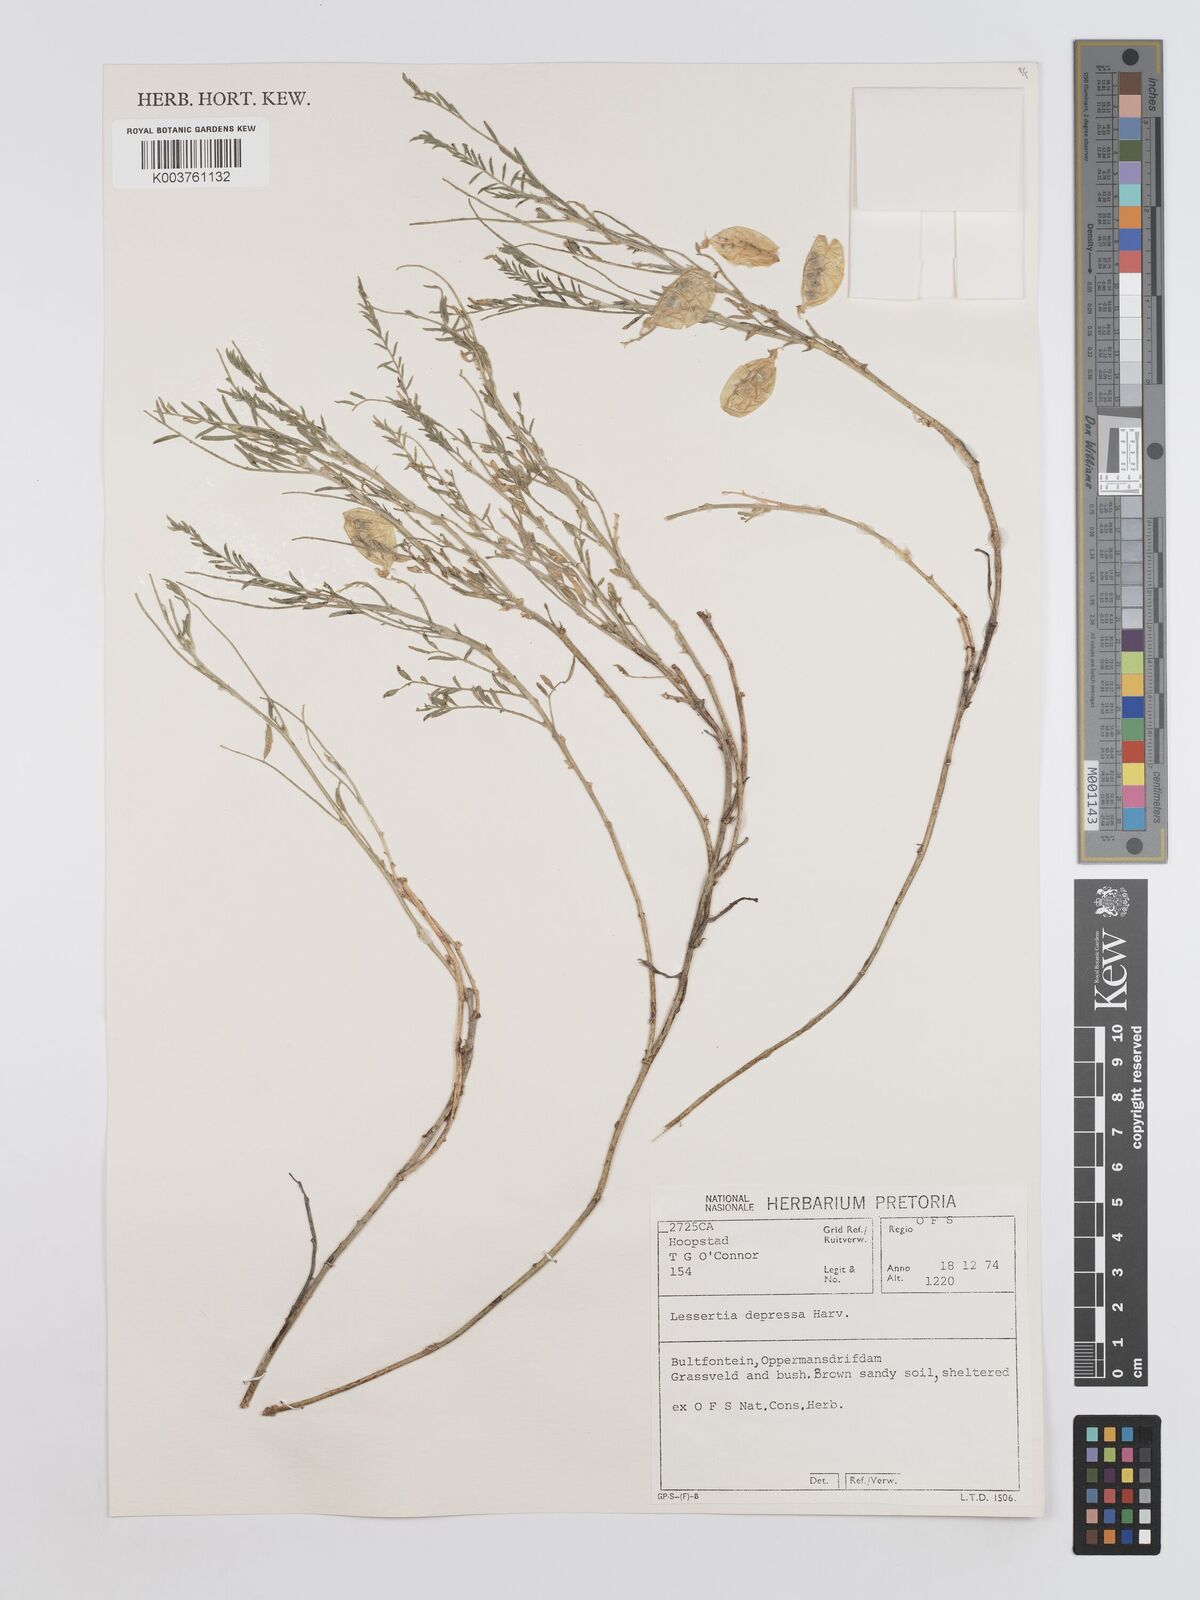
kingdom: Plantae
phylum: Tracheophyta
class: Magnoliopsida
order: Fabales
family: Fabaceae
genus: Lessertia
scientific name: Lessertia depressa
